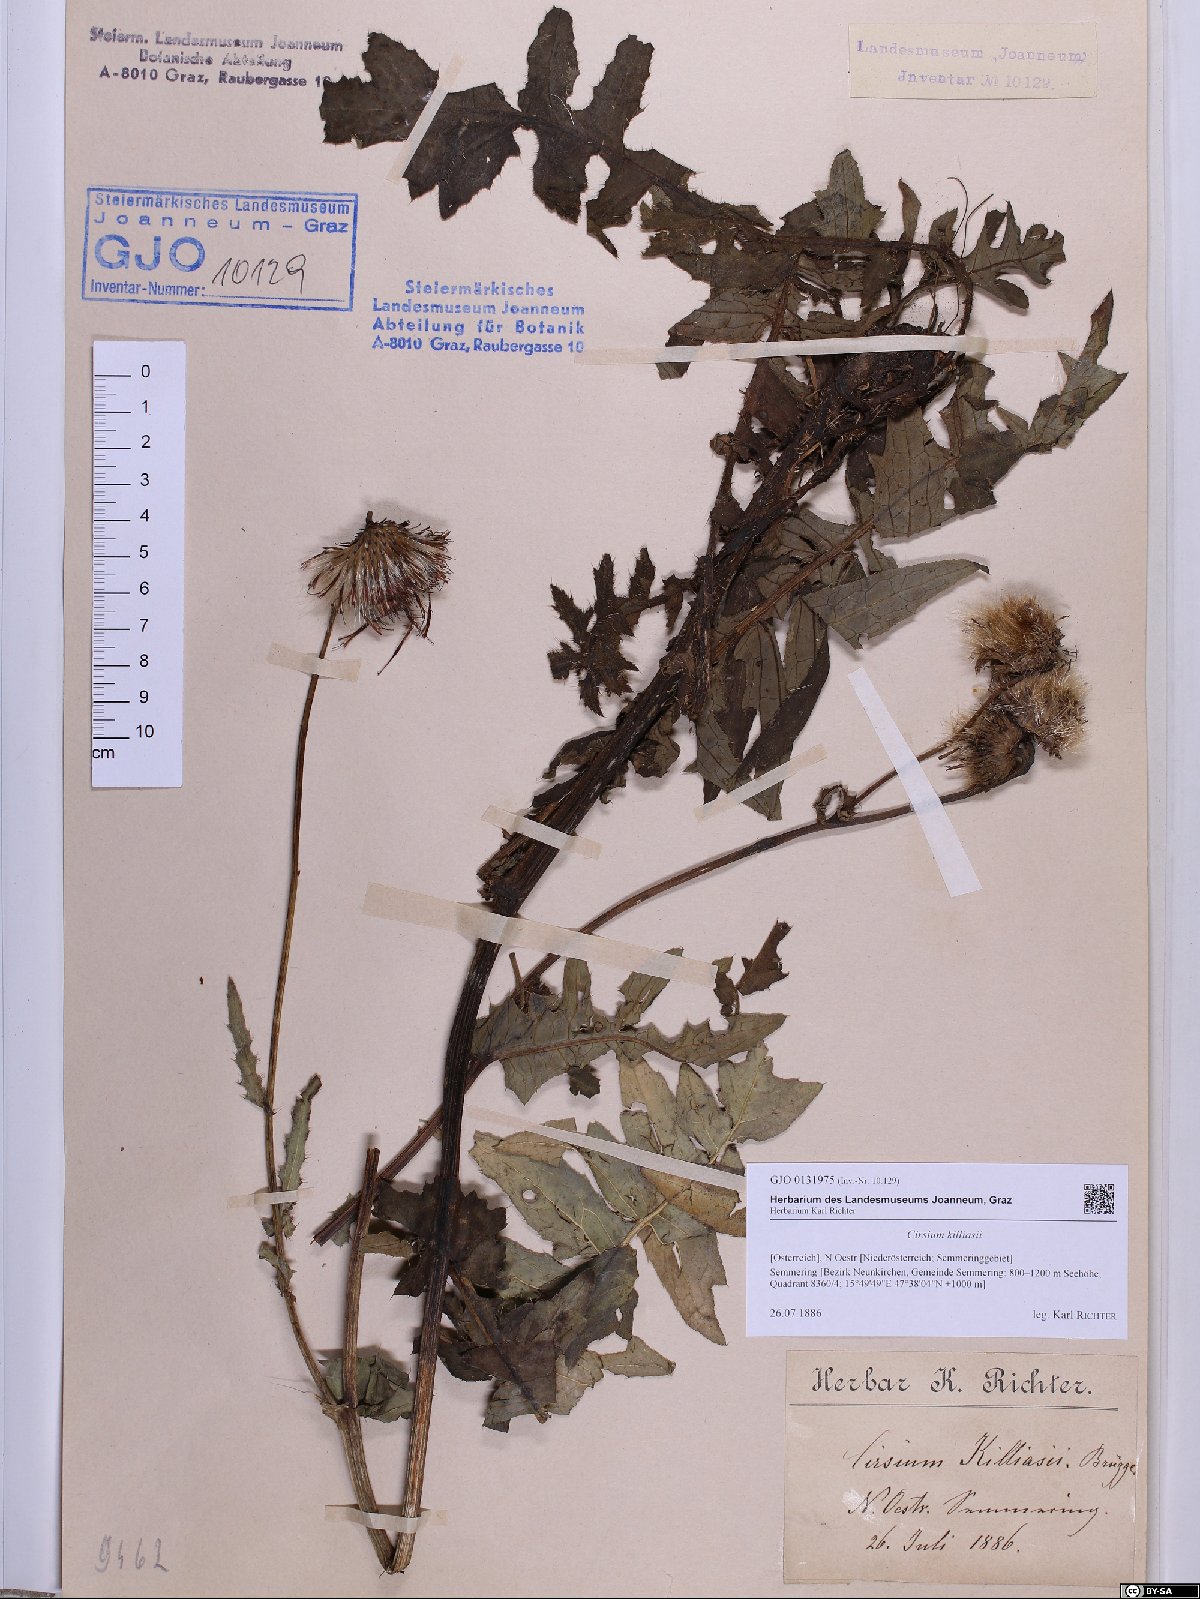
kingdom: Plantae
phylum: Tracheophyta
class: Magnoliopsida
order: Asterales
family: Asteraceae
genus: Cirsium
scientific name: Cirsium killiasii
